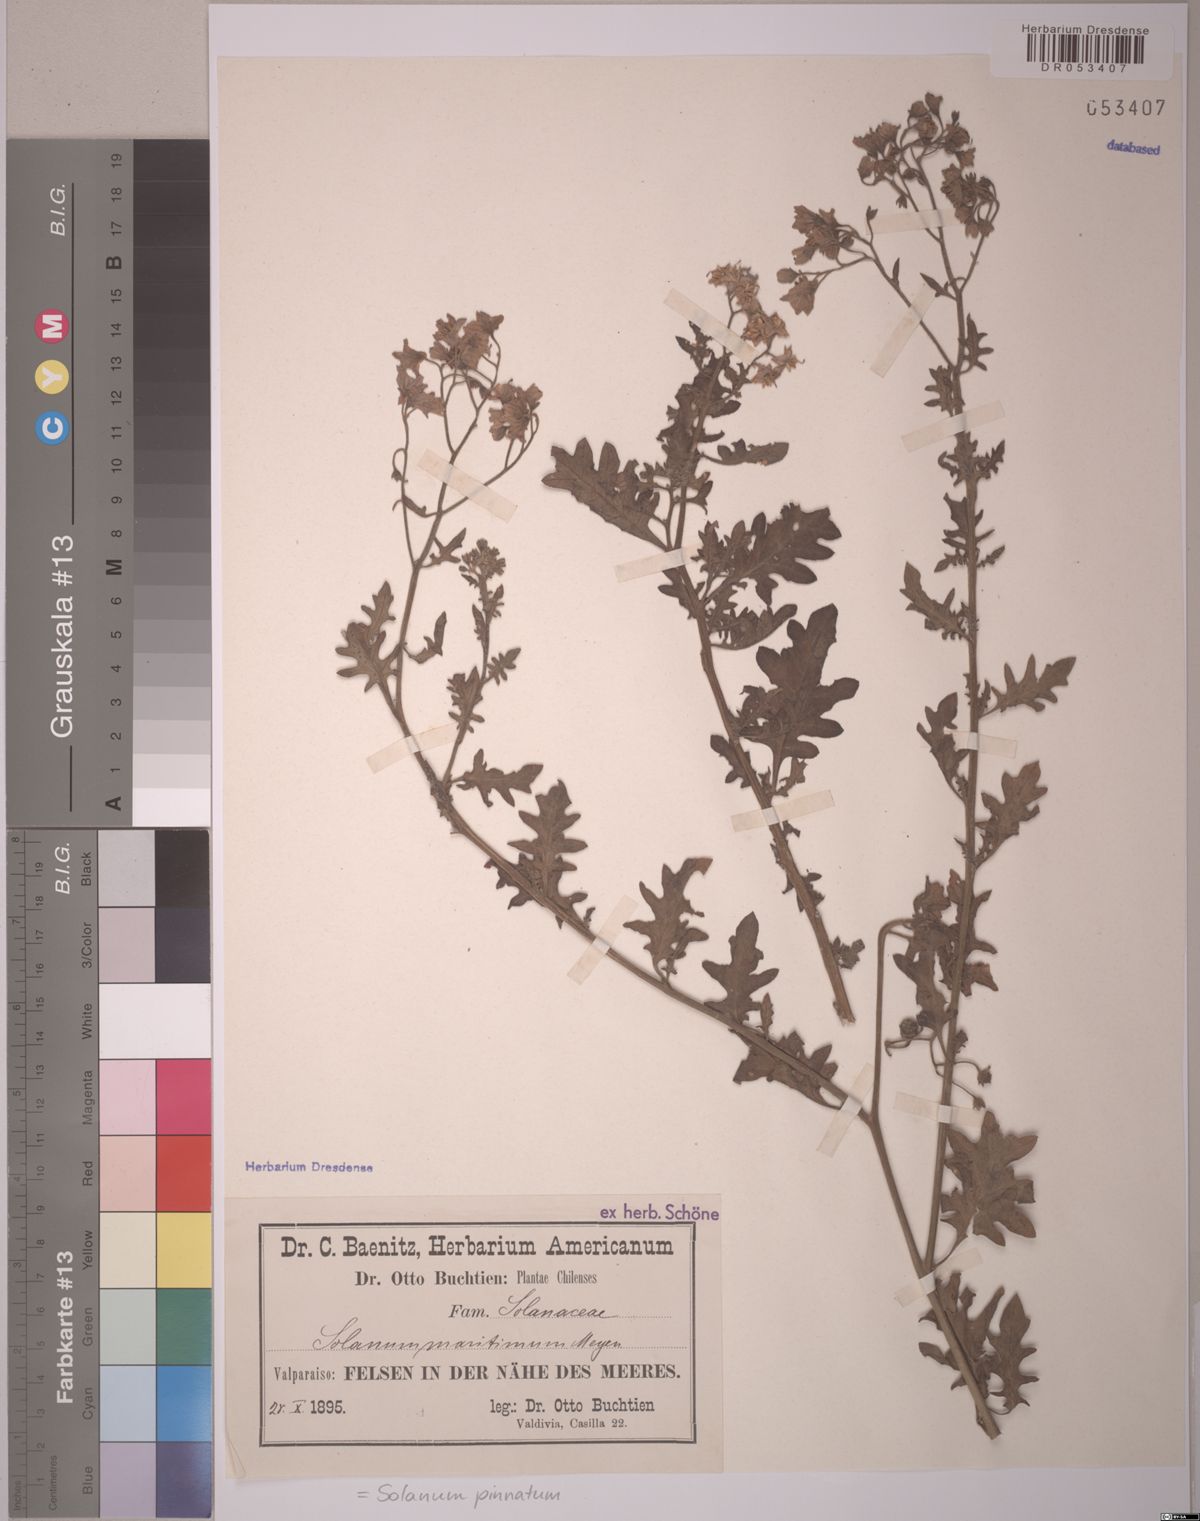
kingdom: Plantae
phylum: Tracheophyta
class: Magnoliopsida
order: Solanales
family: Solanaceae
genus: Solanum
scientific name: Solanum pinnatum
